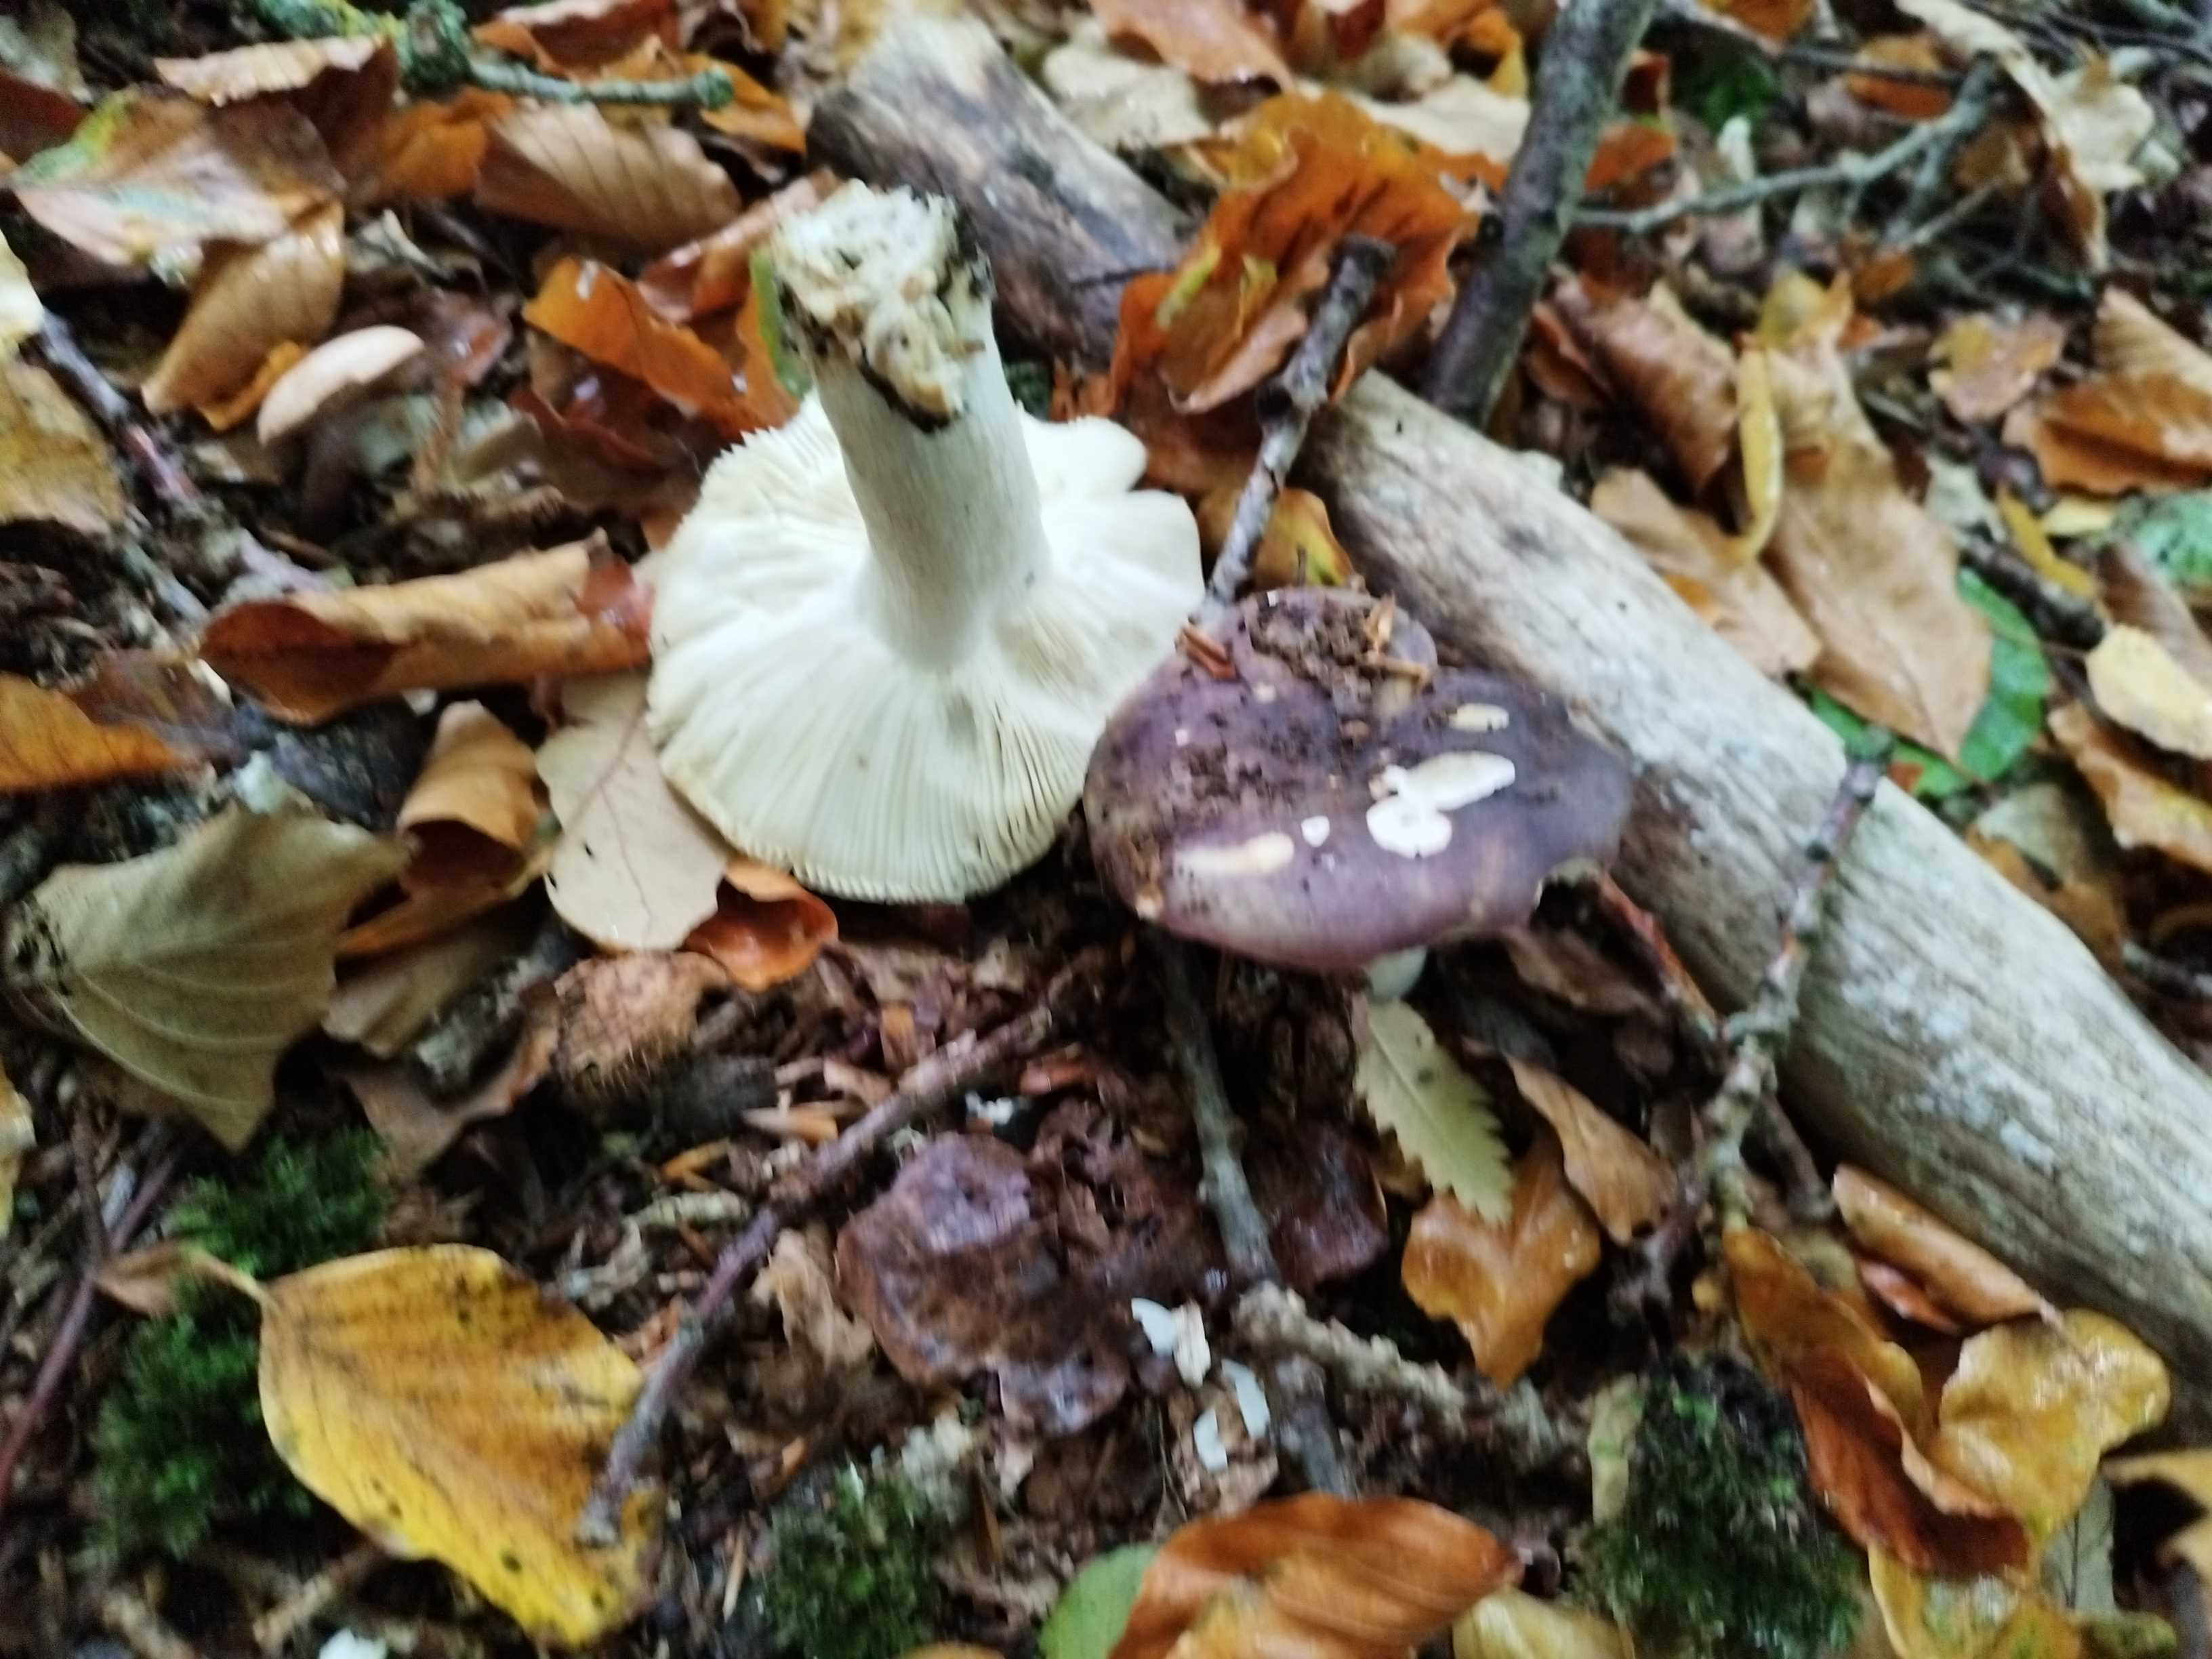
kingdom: Fungi
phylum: Basidiomycota
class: Agaricomycetes
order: Russulales
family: Russulaceae
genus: Russula
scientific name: Russula
